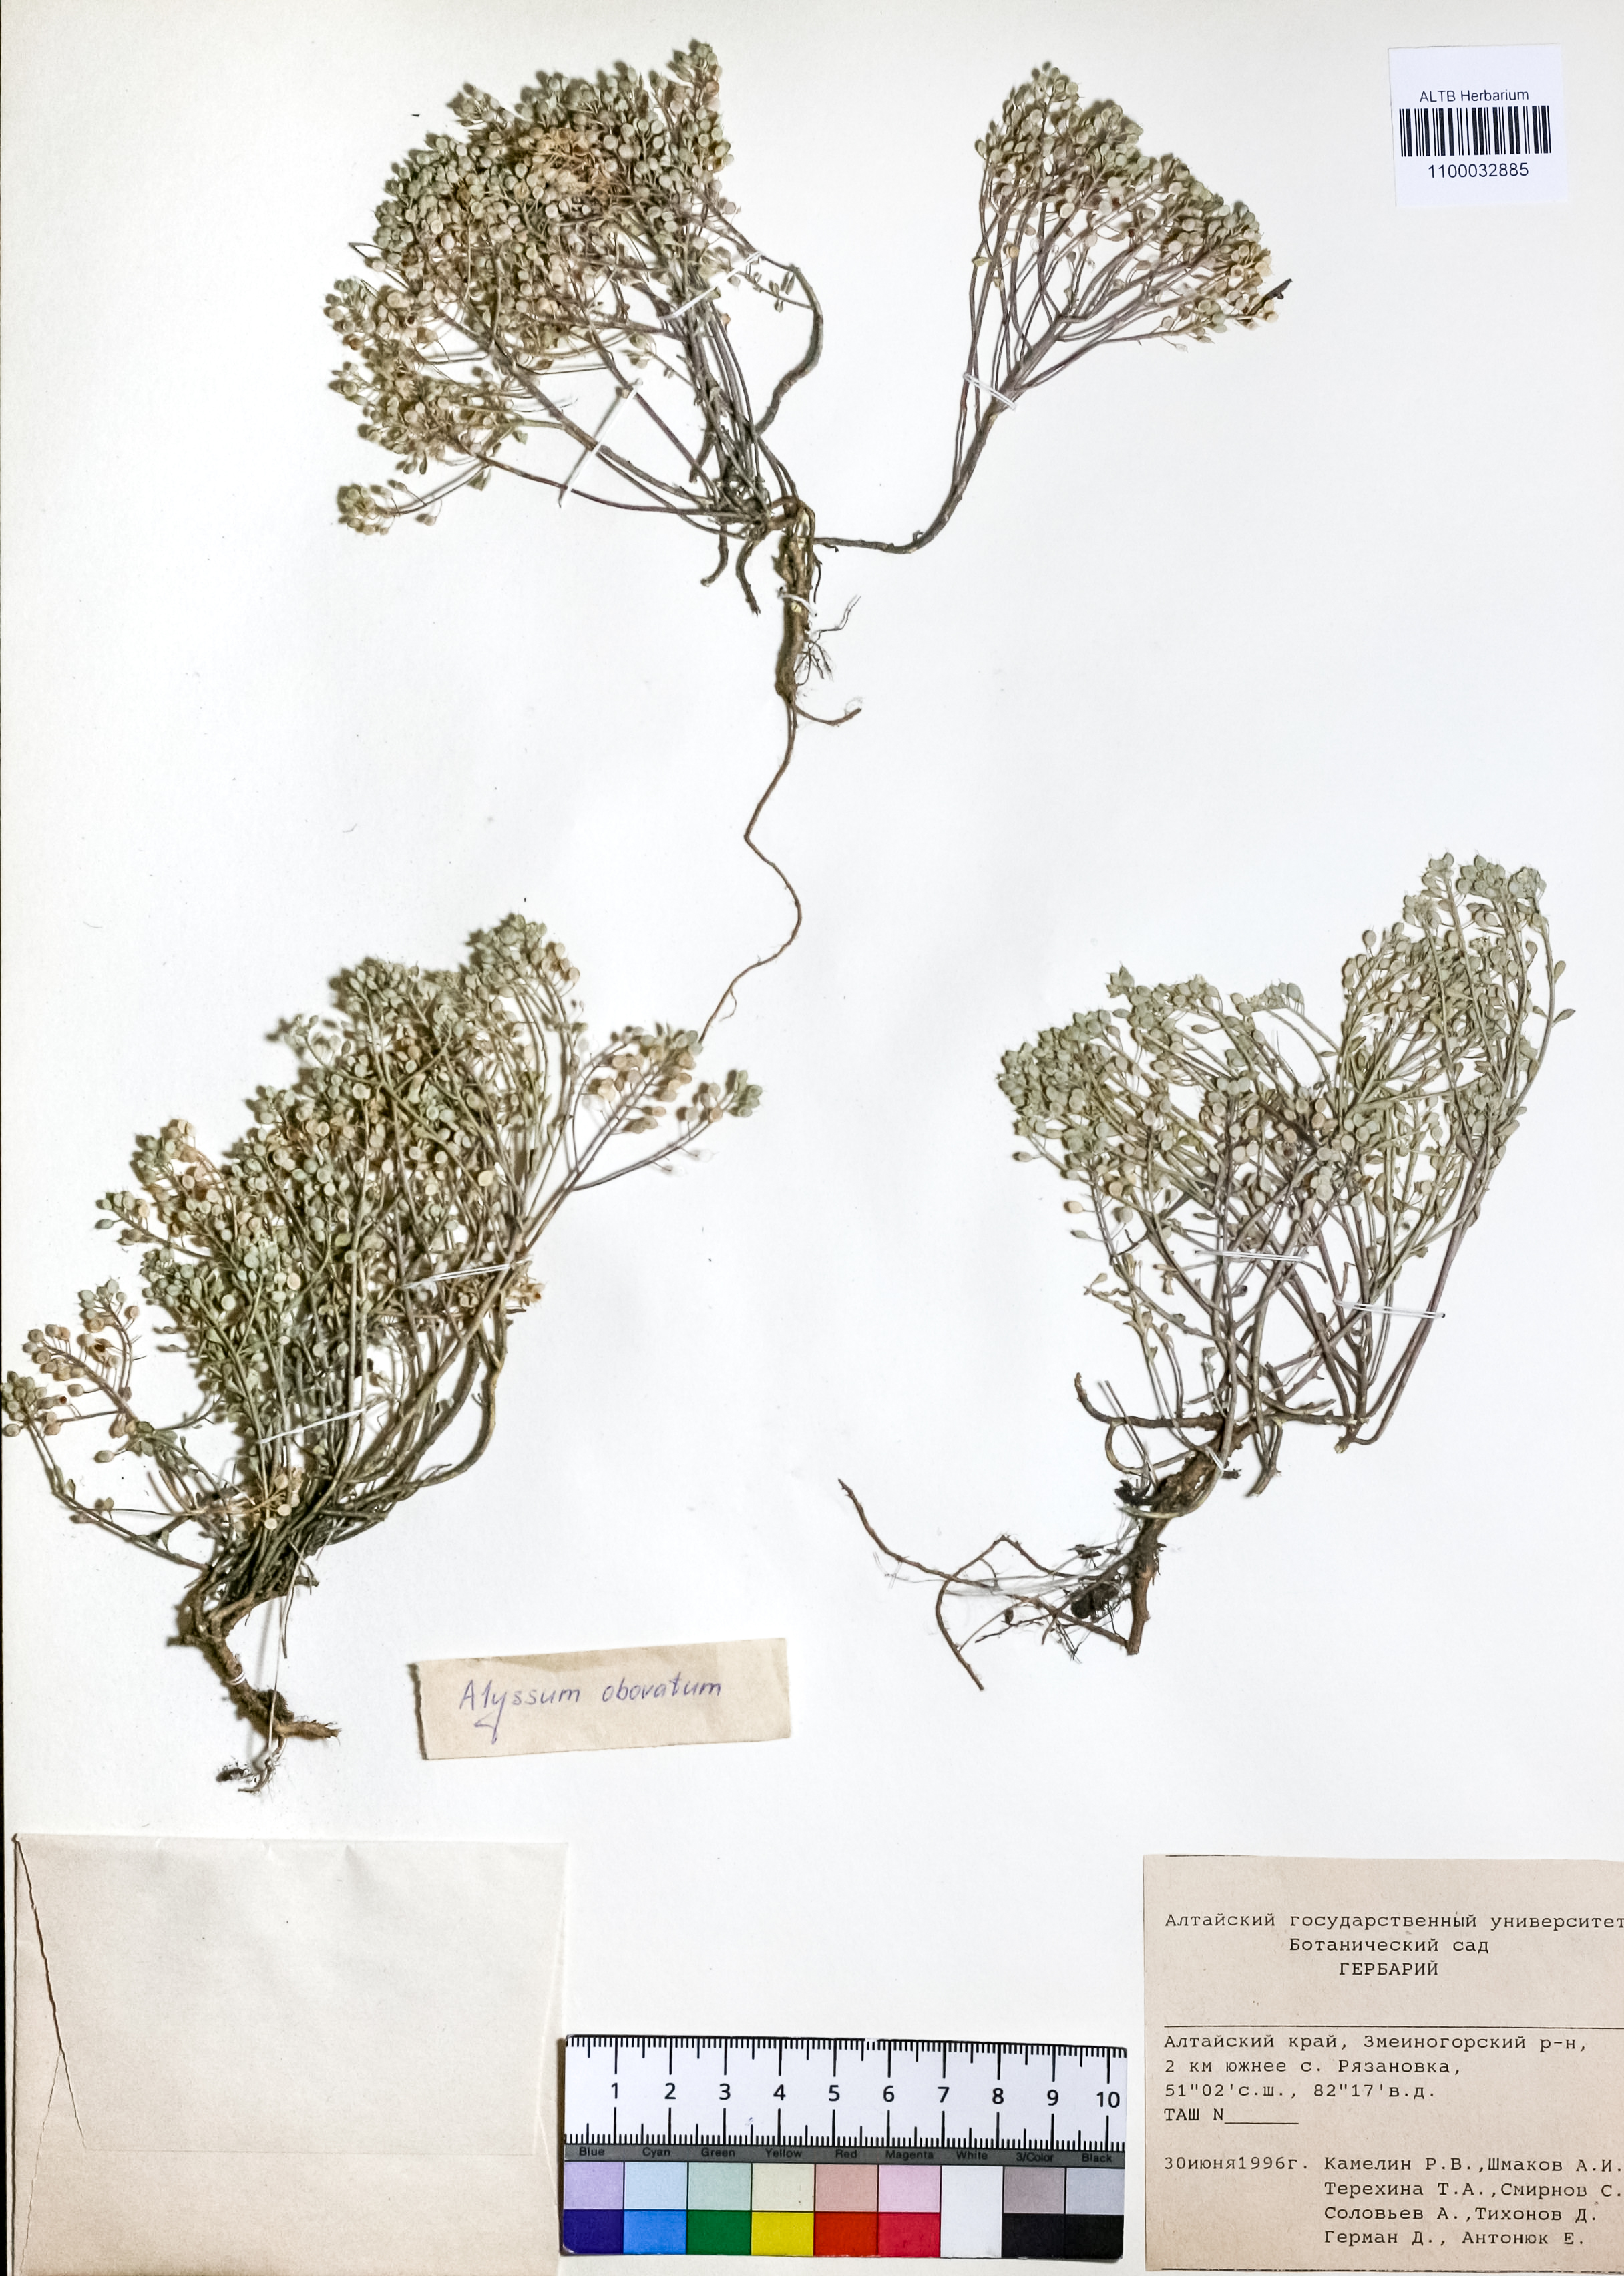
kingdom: Plantae
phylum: Tracheophyta
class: Magnoliopsida
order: Brassicales
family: Brassicaceae
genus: Odontarrhena
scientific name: Odontarrhena obovata
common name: American alyssum
